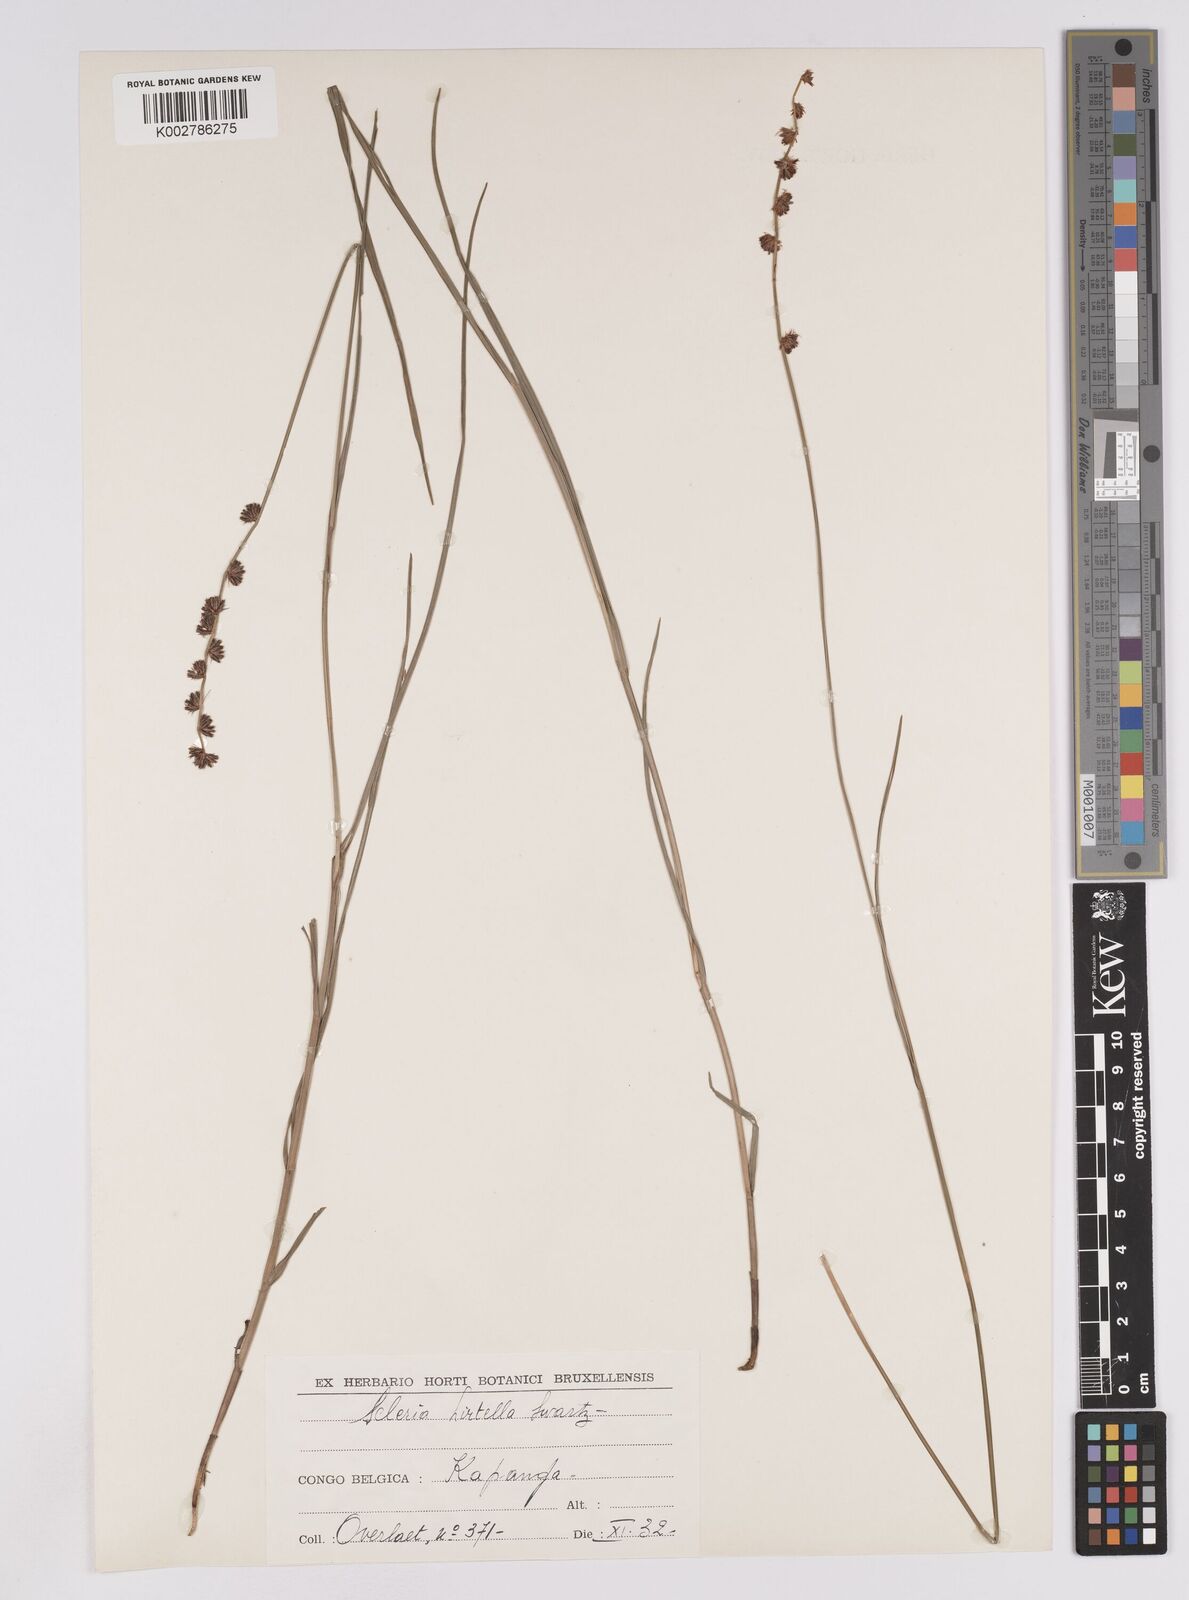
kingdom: Plantae
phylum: Tracheophyta
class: Liliopsida
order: Poales
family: Cyperaceae
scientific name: Cyperaceae
